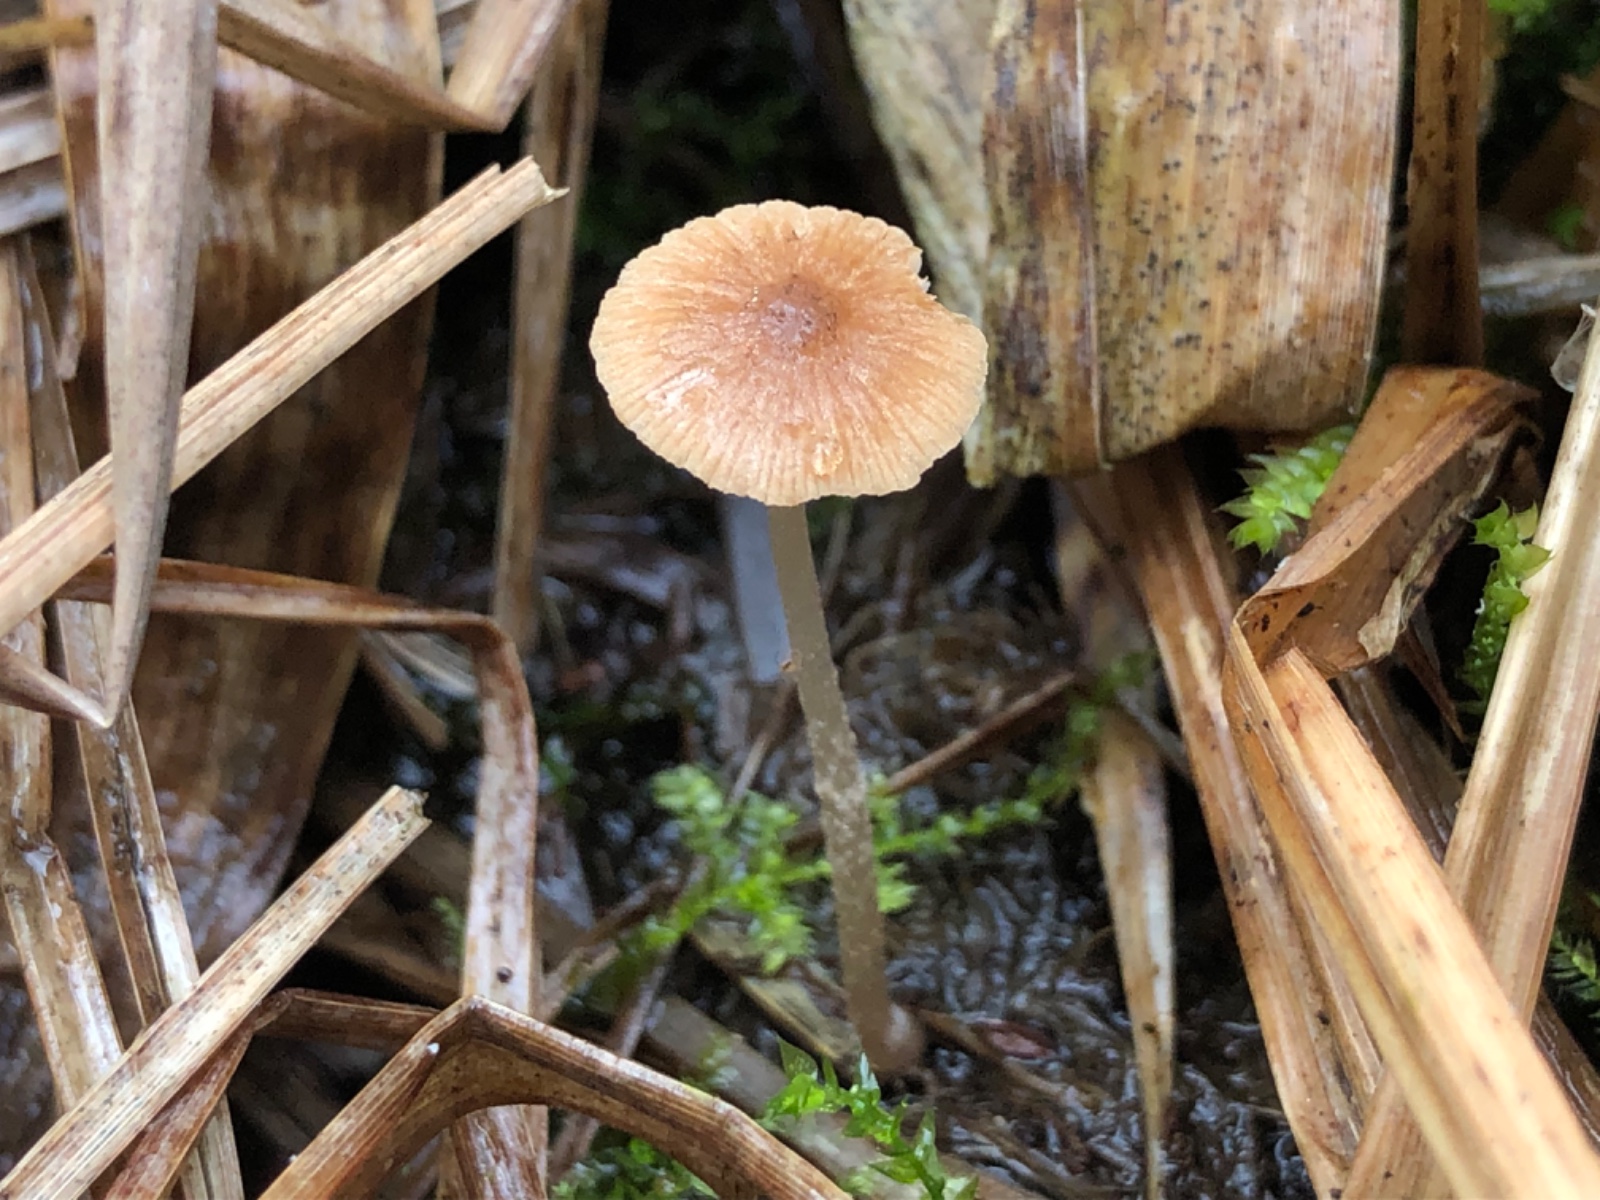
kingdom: Fungi
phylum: Basidiomycota
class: Agaricomycetes
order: Agaricales
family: Psathyrellaceae
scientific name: Psathyrellaceae
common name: mørkhatfamilien
